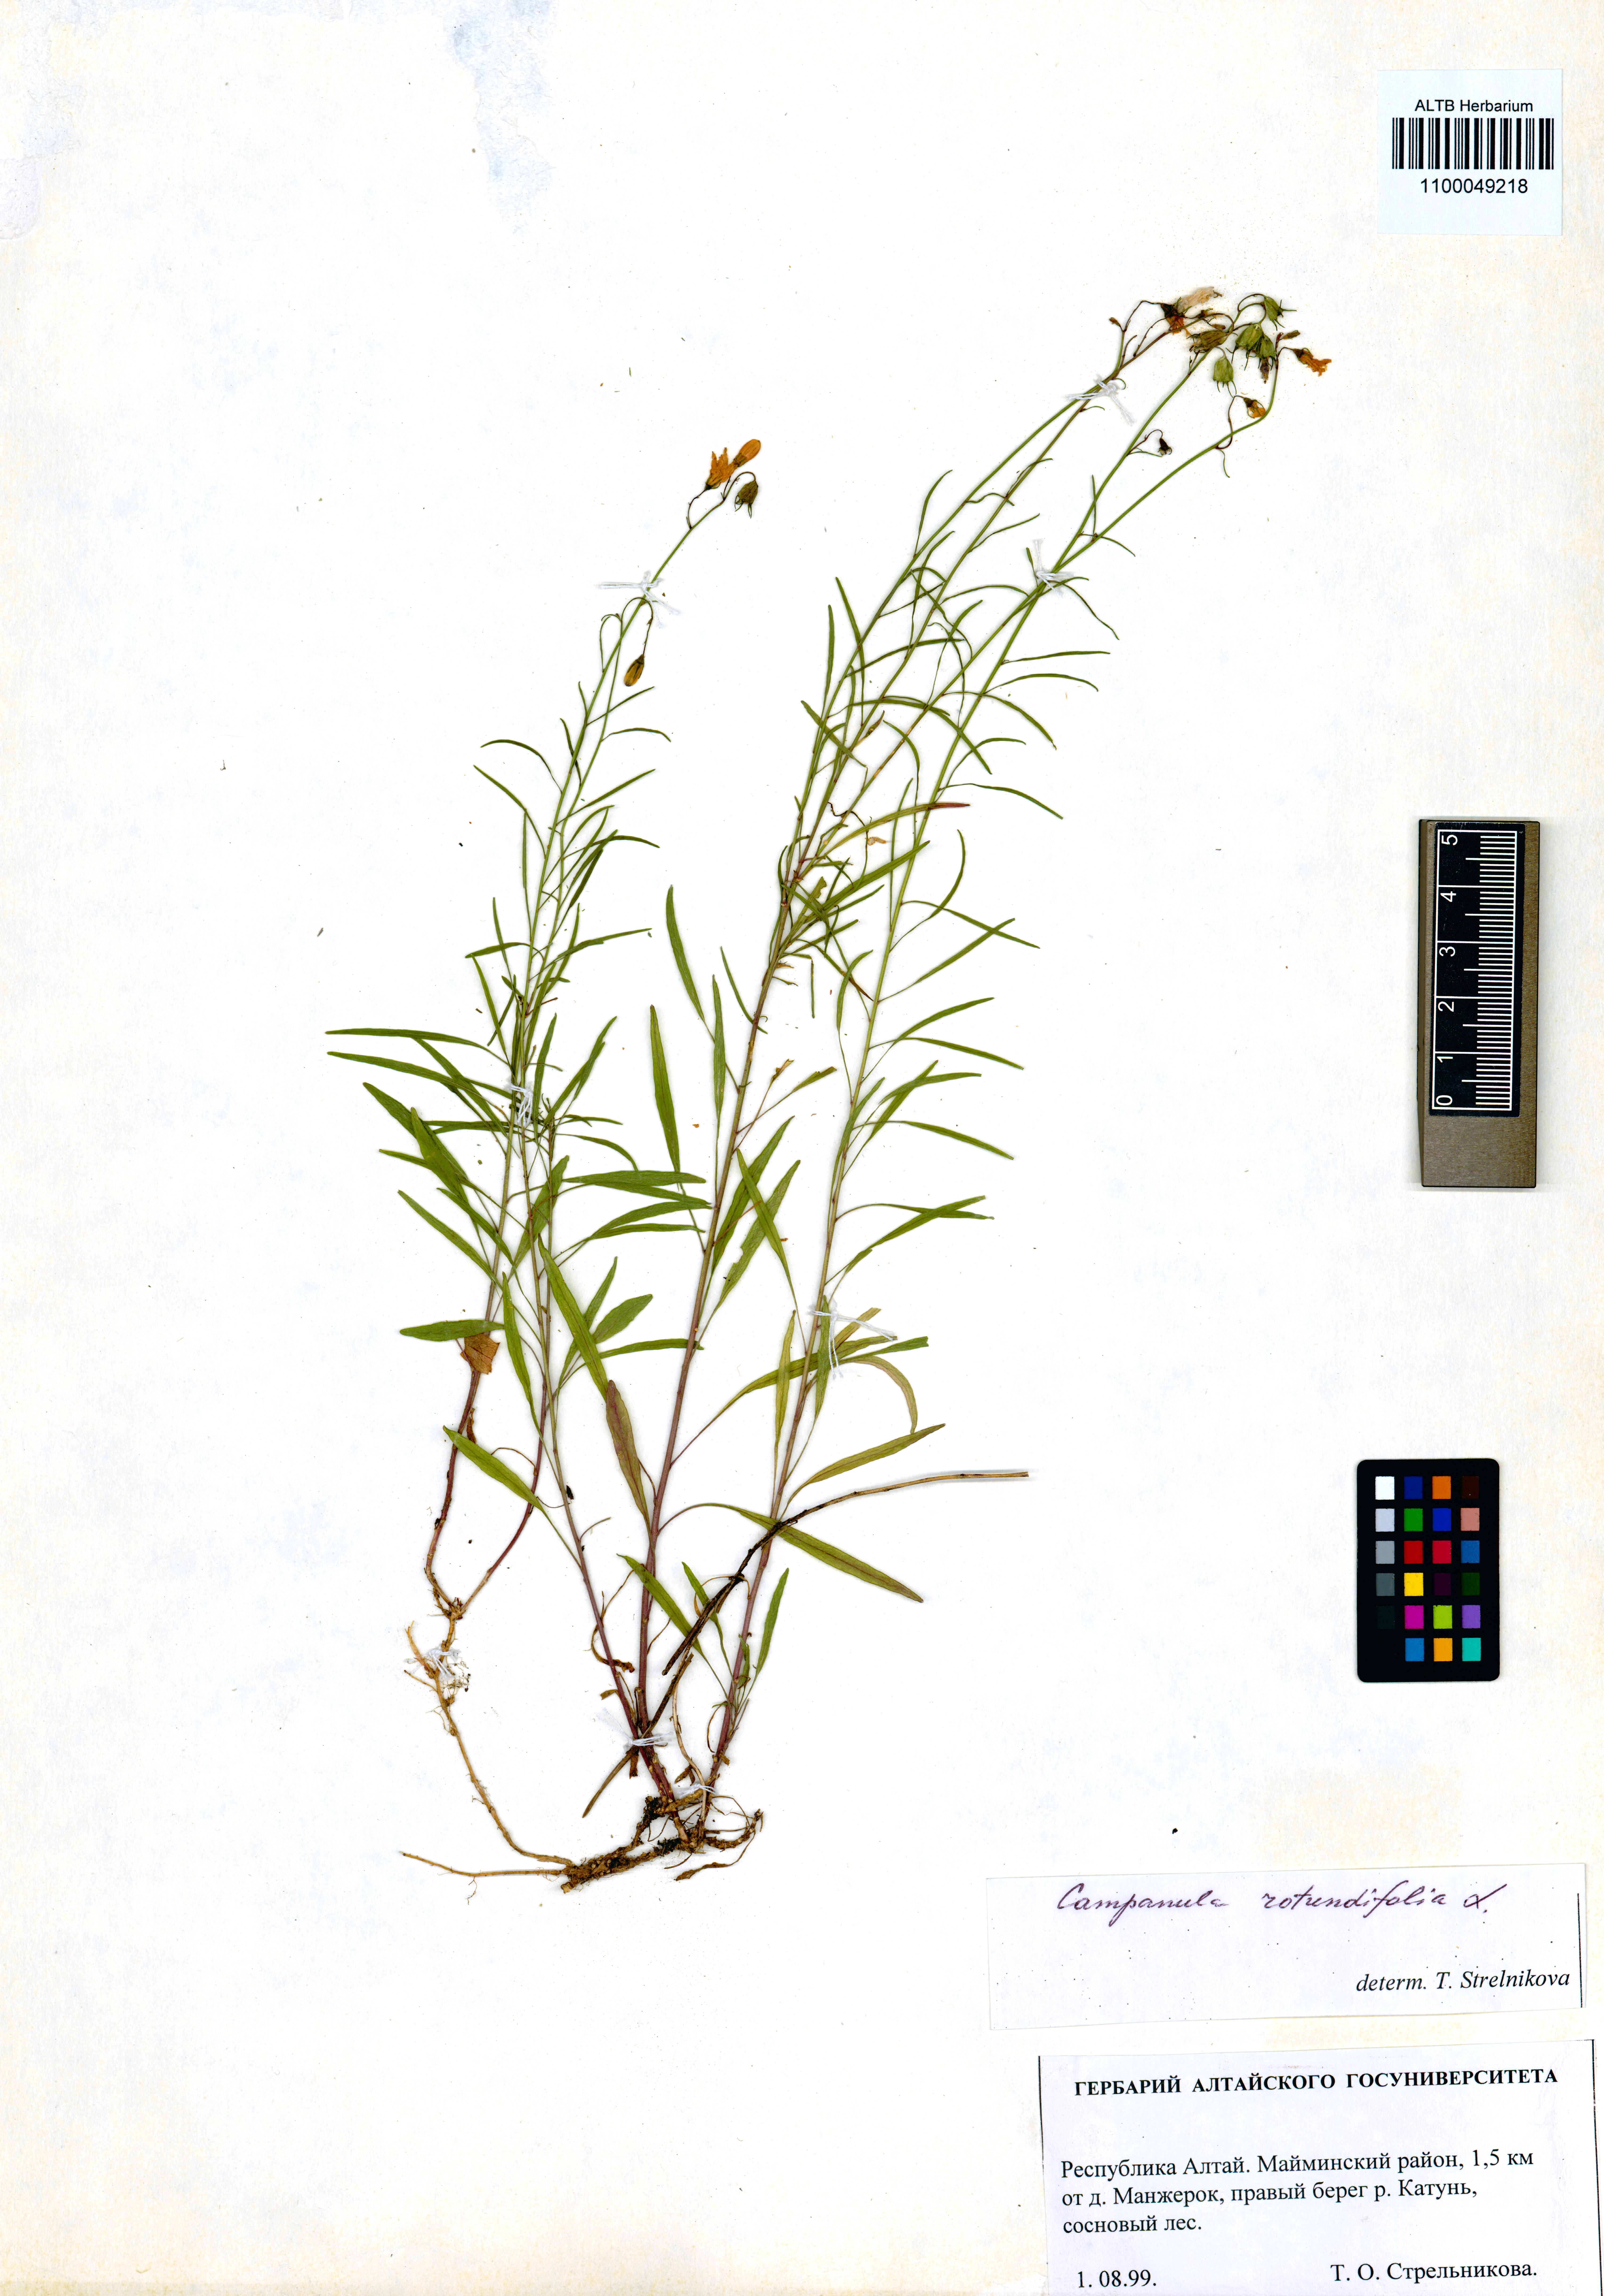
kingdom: Plantae
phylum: Tracheophyta
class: Magnoliopsida
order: Asterales
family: Campanulaceae
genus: Campanula
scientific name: Campanula rotundifolia
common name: Harebell
